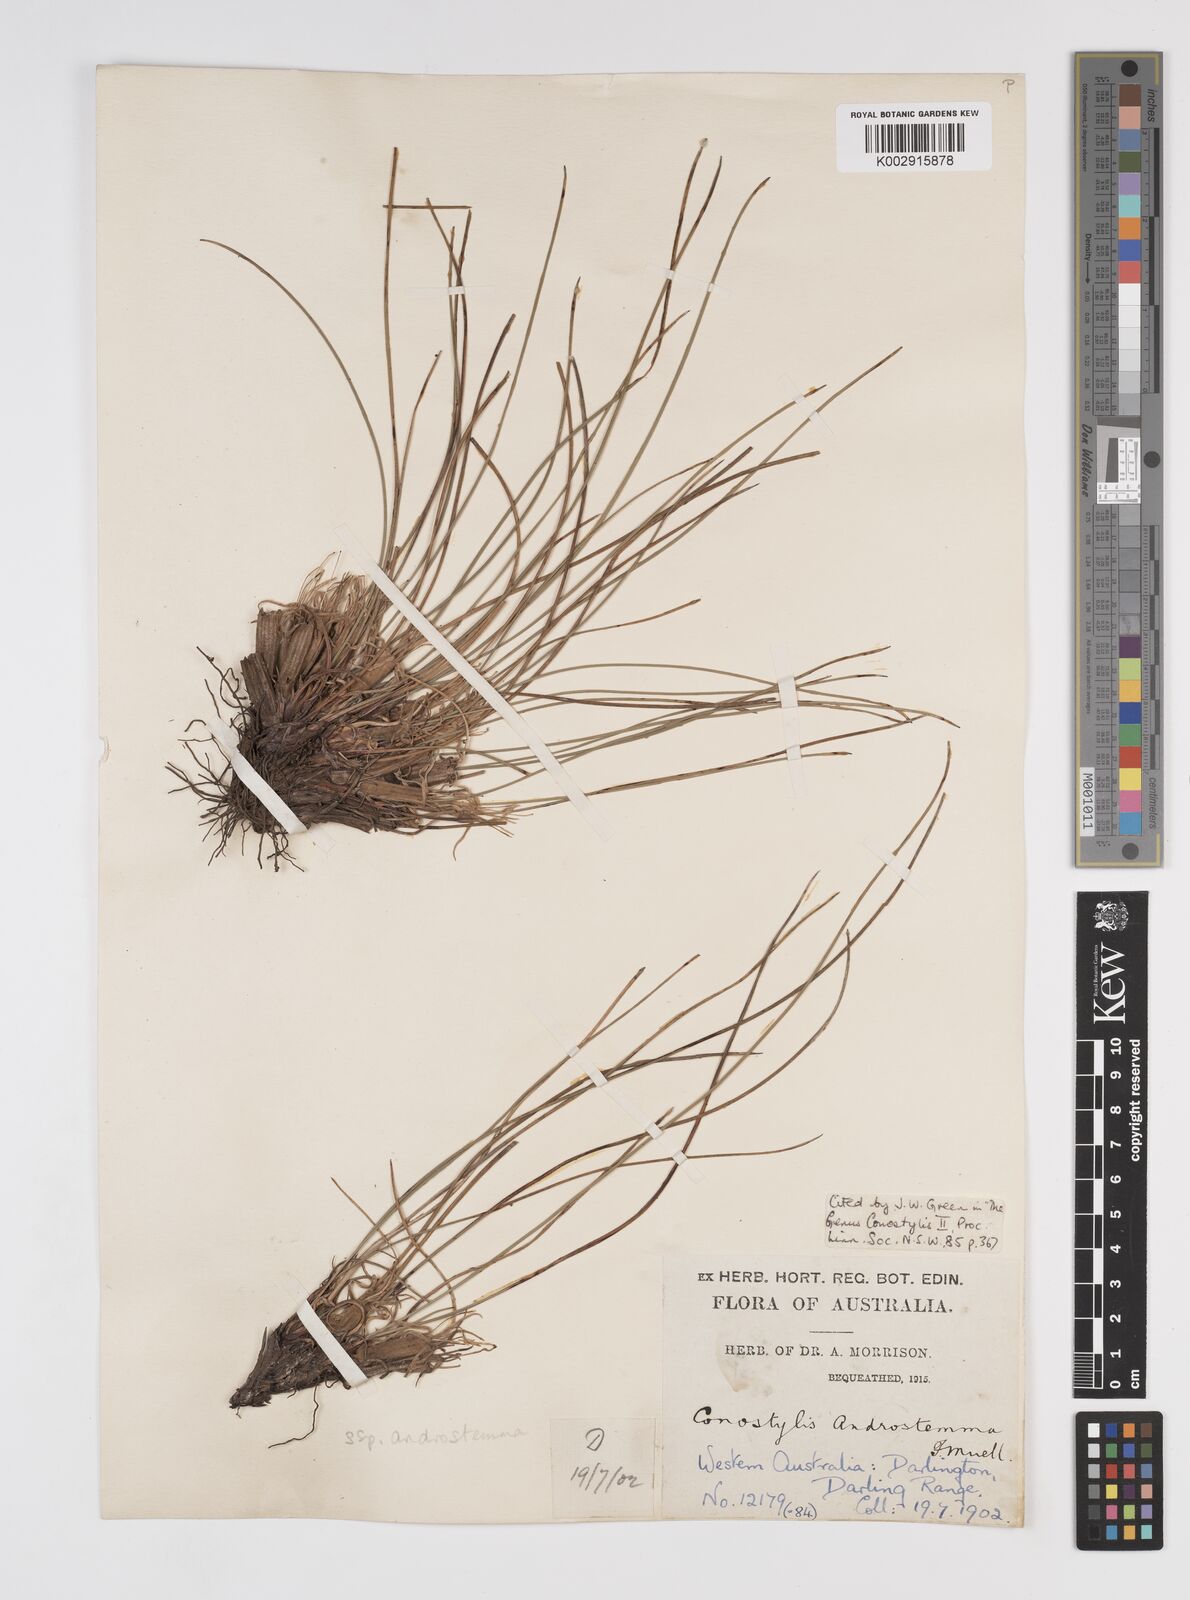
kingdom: Plantae
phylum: Tracheophyta
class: Liliopsida
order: Commelinales
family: Haemodoraceae
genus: Conostylis
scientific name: Conostylis
